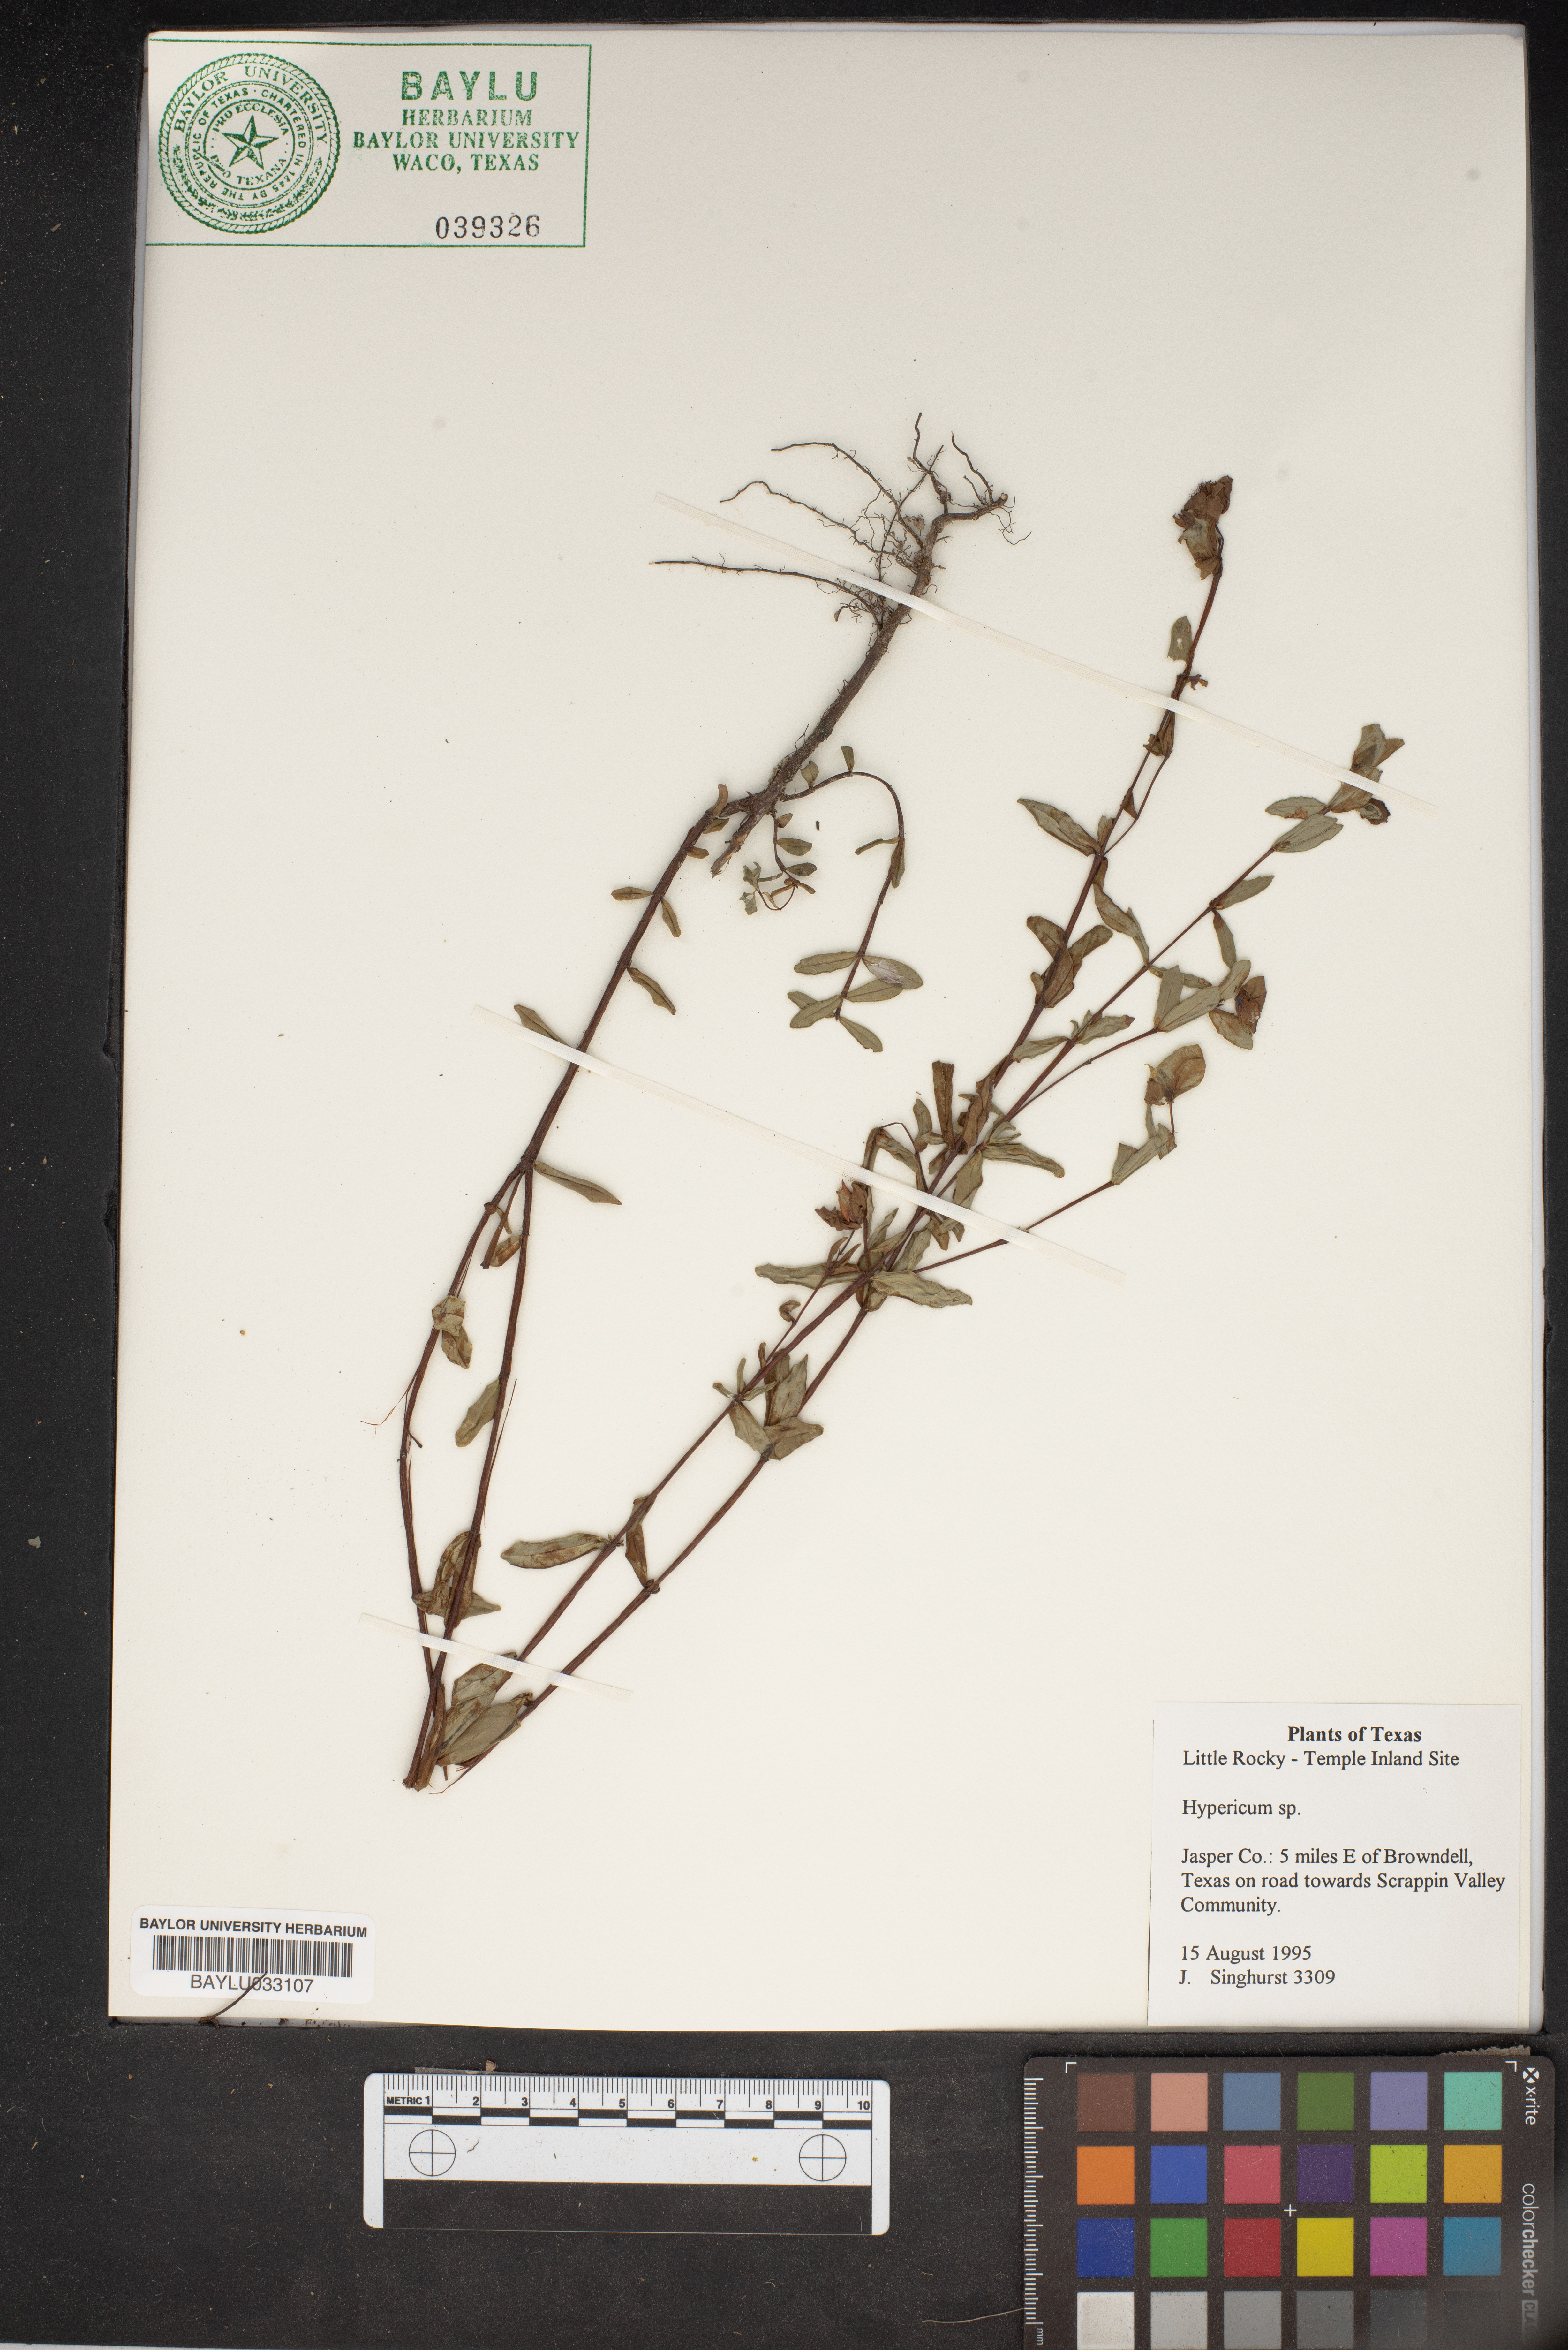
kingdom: Plantae
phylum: Tracheophyta
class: Magnoliopsida
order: Malpighiales
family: Hypericaceae
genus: Hypericum
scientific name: Hypericum
